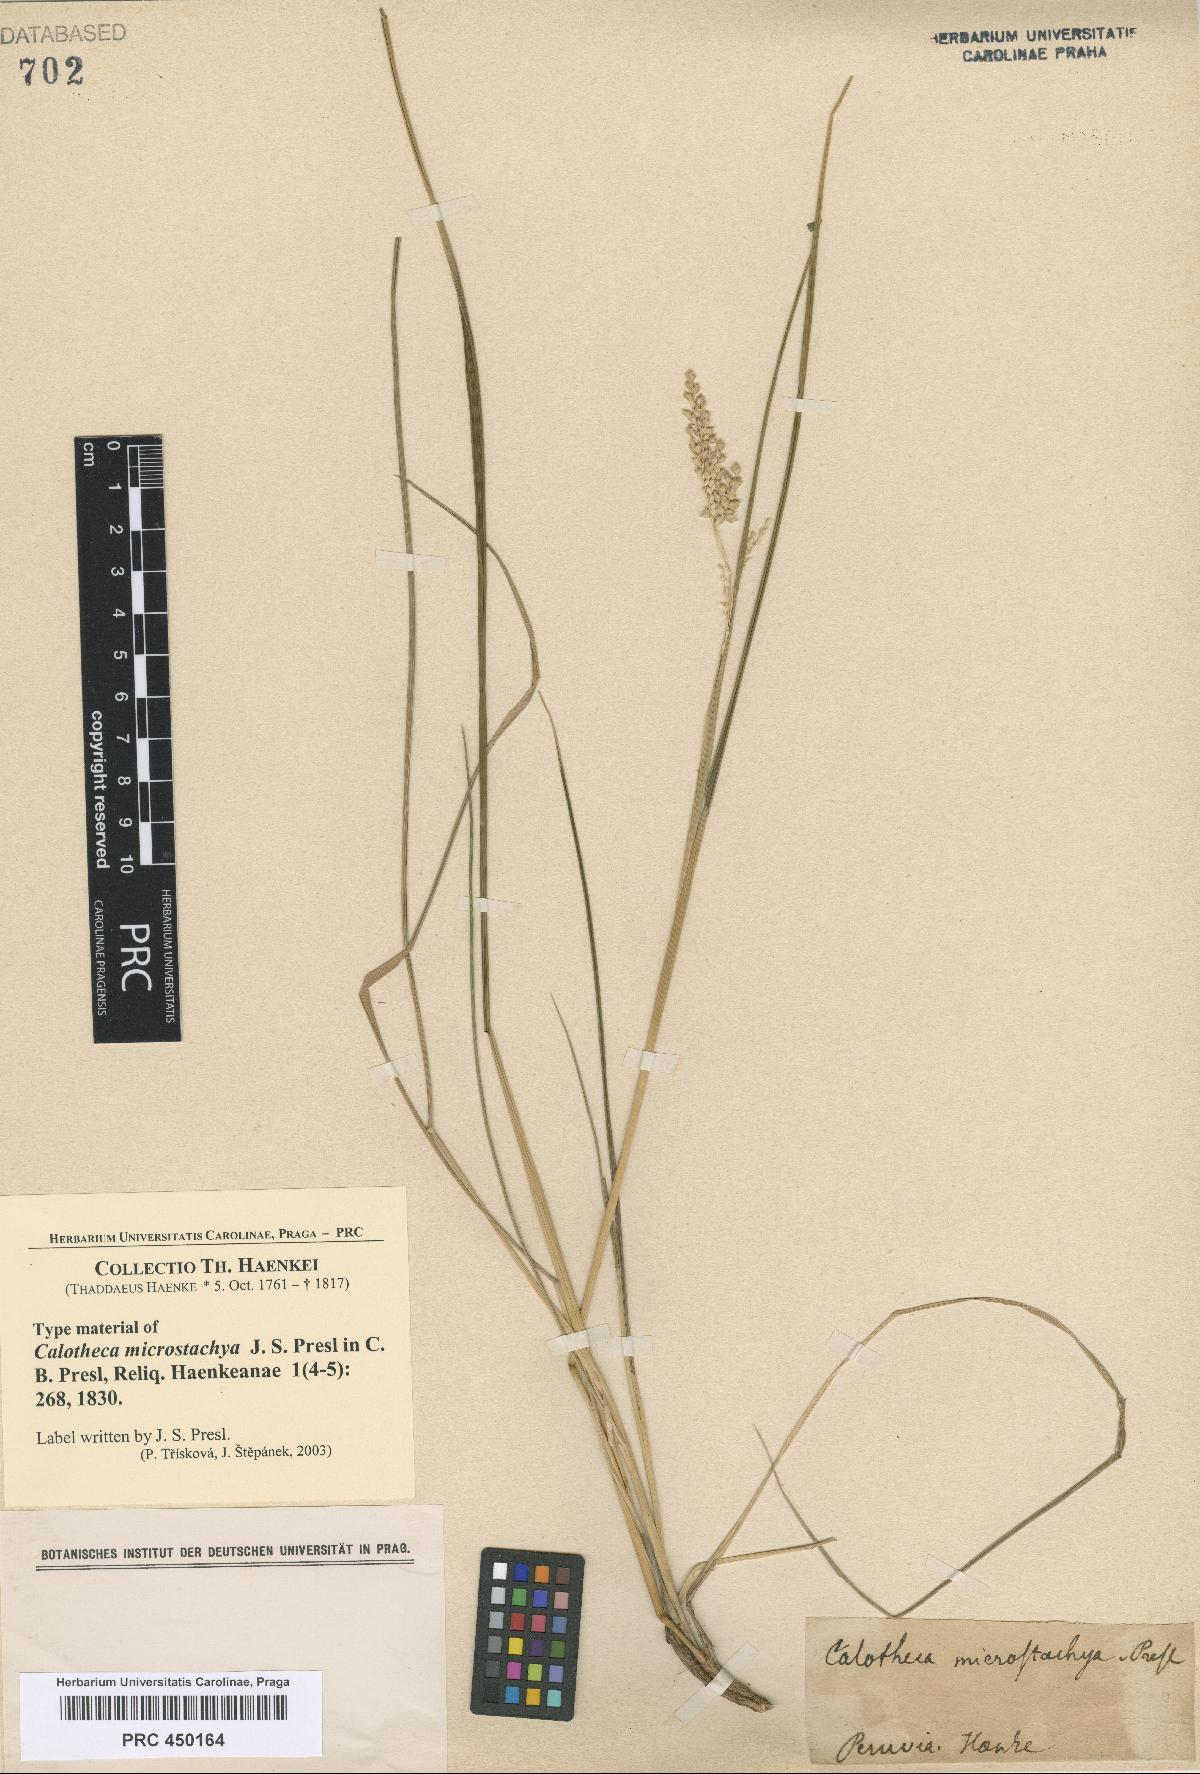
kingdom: Plantae
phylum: Tracheophyta
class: Liliopsida
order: Poales
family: Poaceae
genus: Chascolytrum
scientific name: Chascolytrum subaristatum
